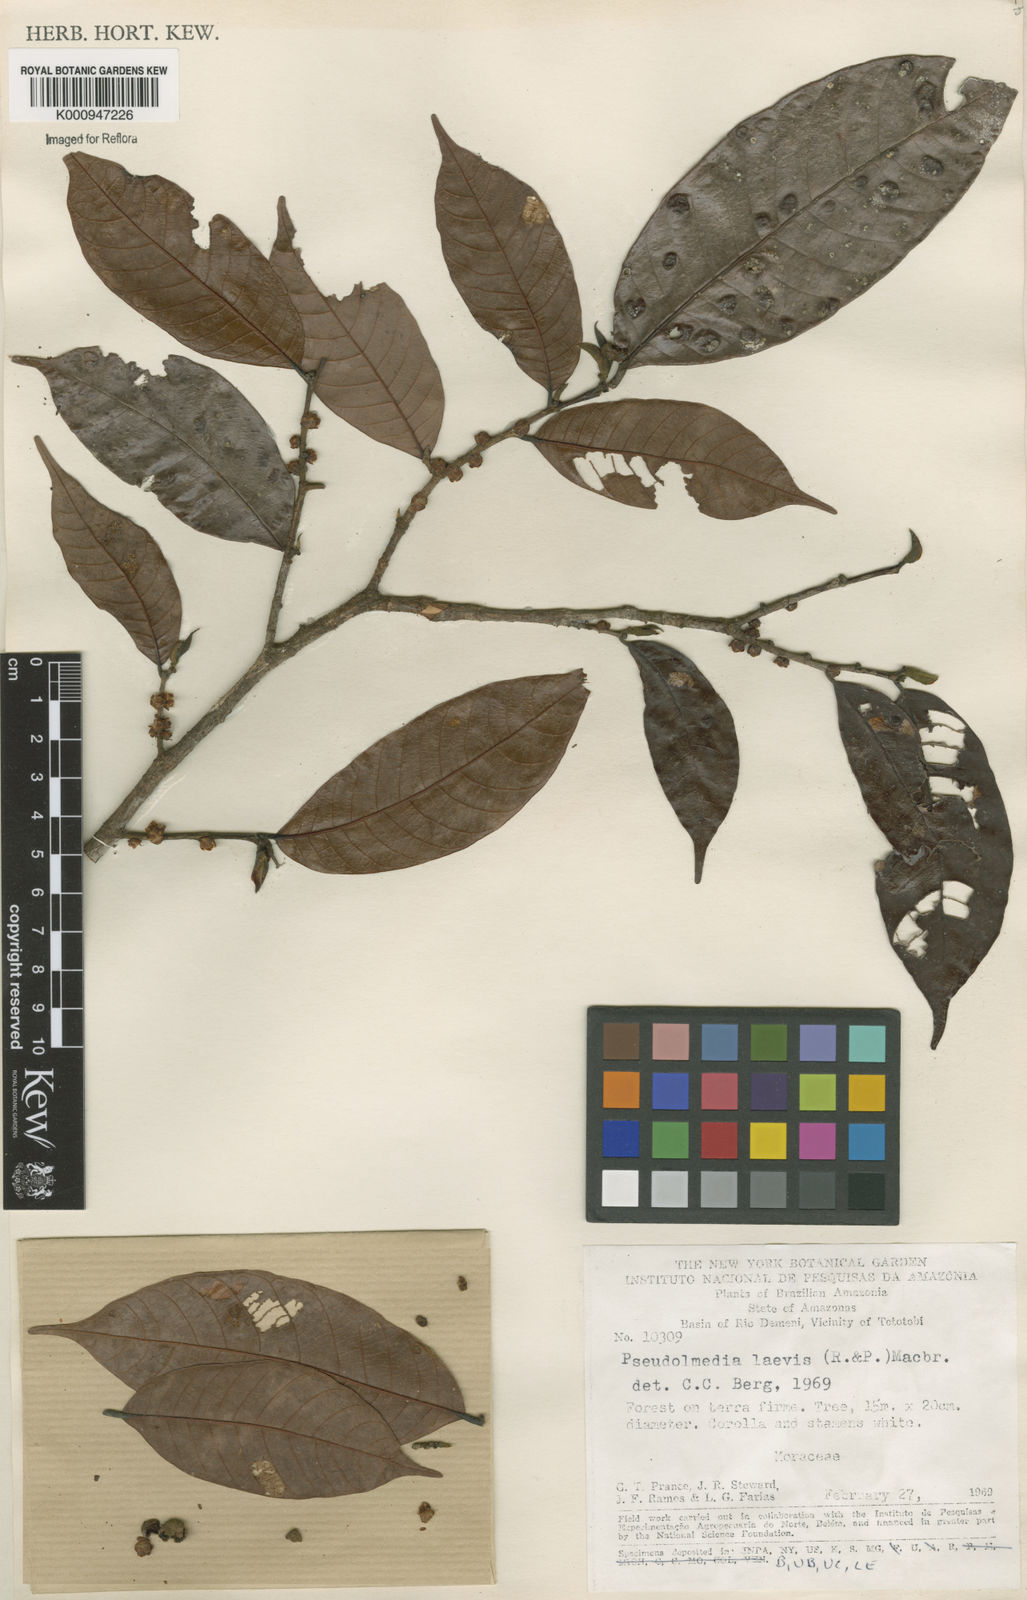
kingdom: Plantae
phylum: Tracheophyta
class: Magnoliopsida
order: Rosales
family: Moraceae
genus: Pseudolmedia
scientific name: Pseudolmedia laevis
